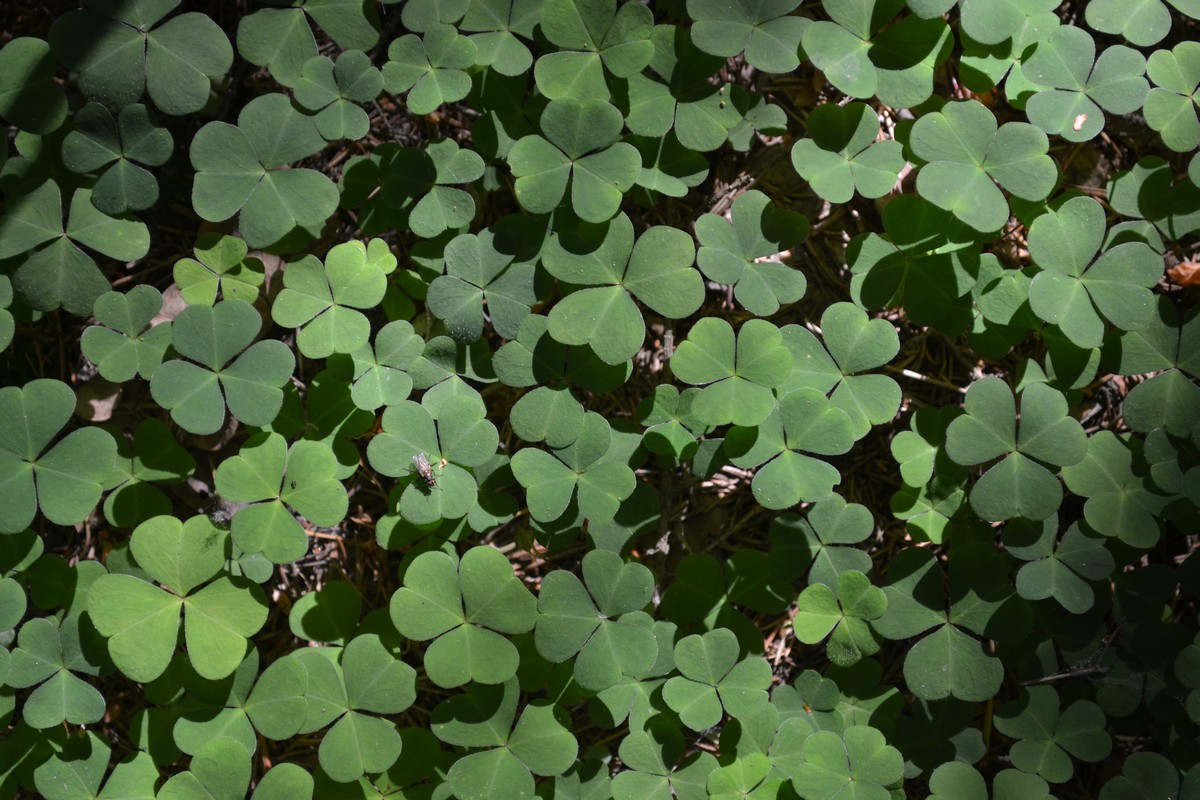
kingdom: Plantae
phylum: Tracheophyta
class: Magnoliopsida
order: Oxalidales
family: Oxalidaceae
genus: Oxalis
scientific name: Oxalis stricta
